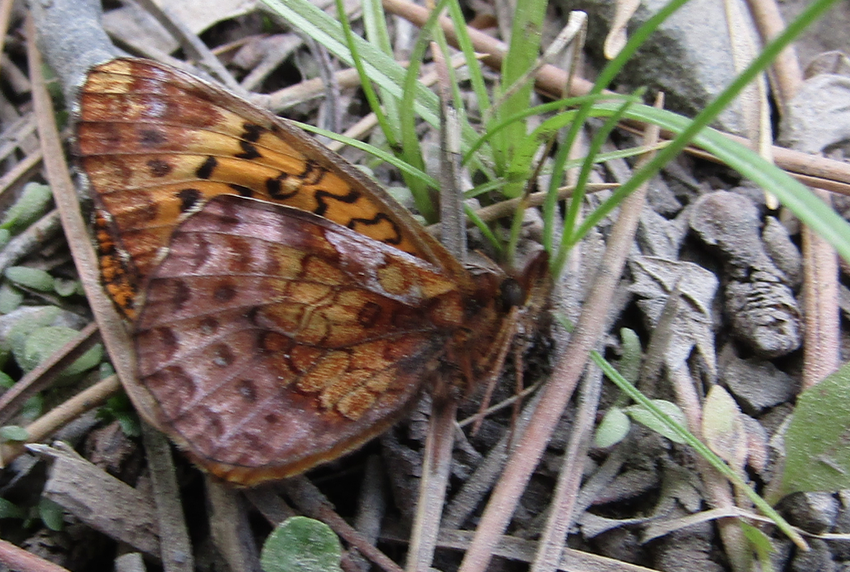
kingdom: Animalia
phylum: Arthropoda
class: Insecta
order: Lepidoptera
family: Nymphalidae
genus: Clossiana
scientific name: Clossiana toddi
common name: Meadow Fritillary
